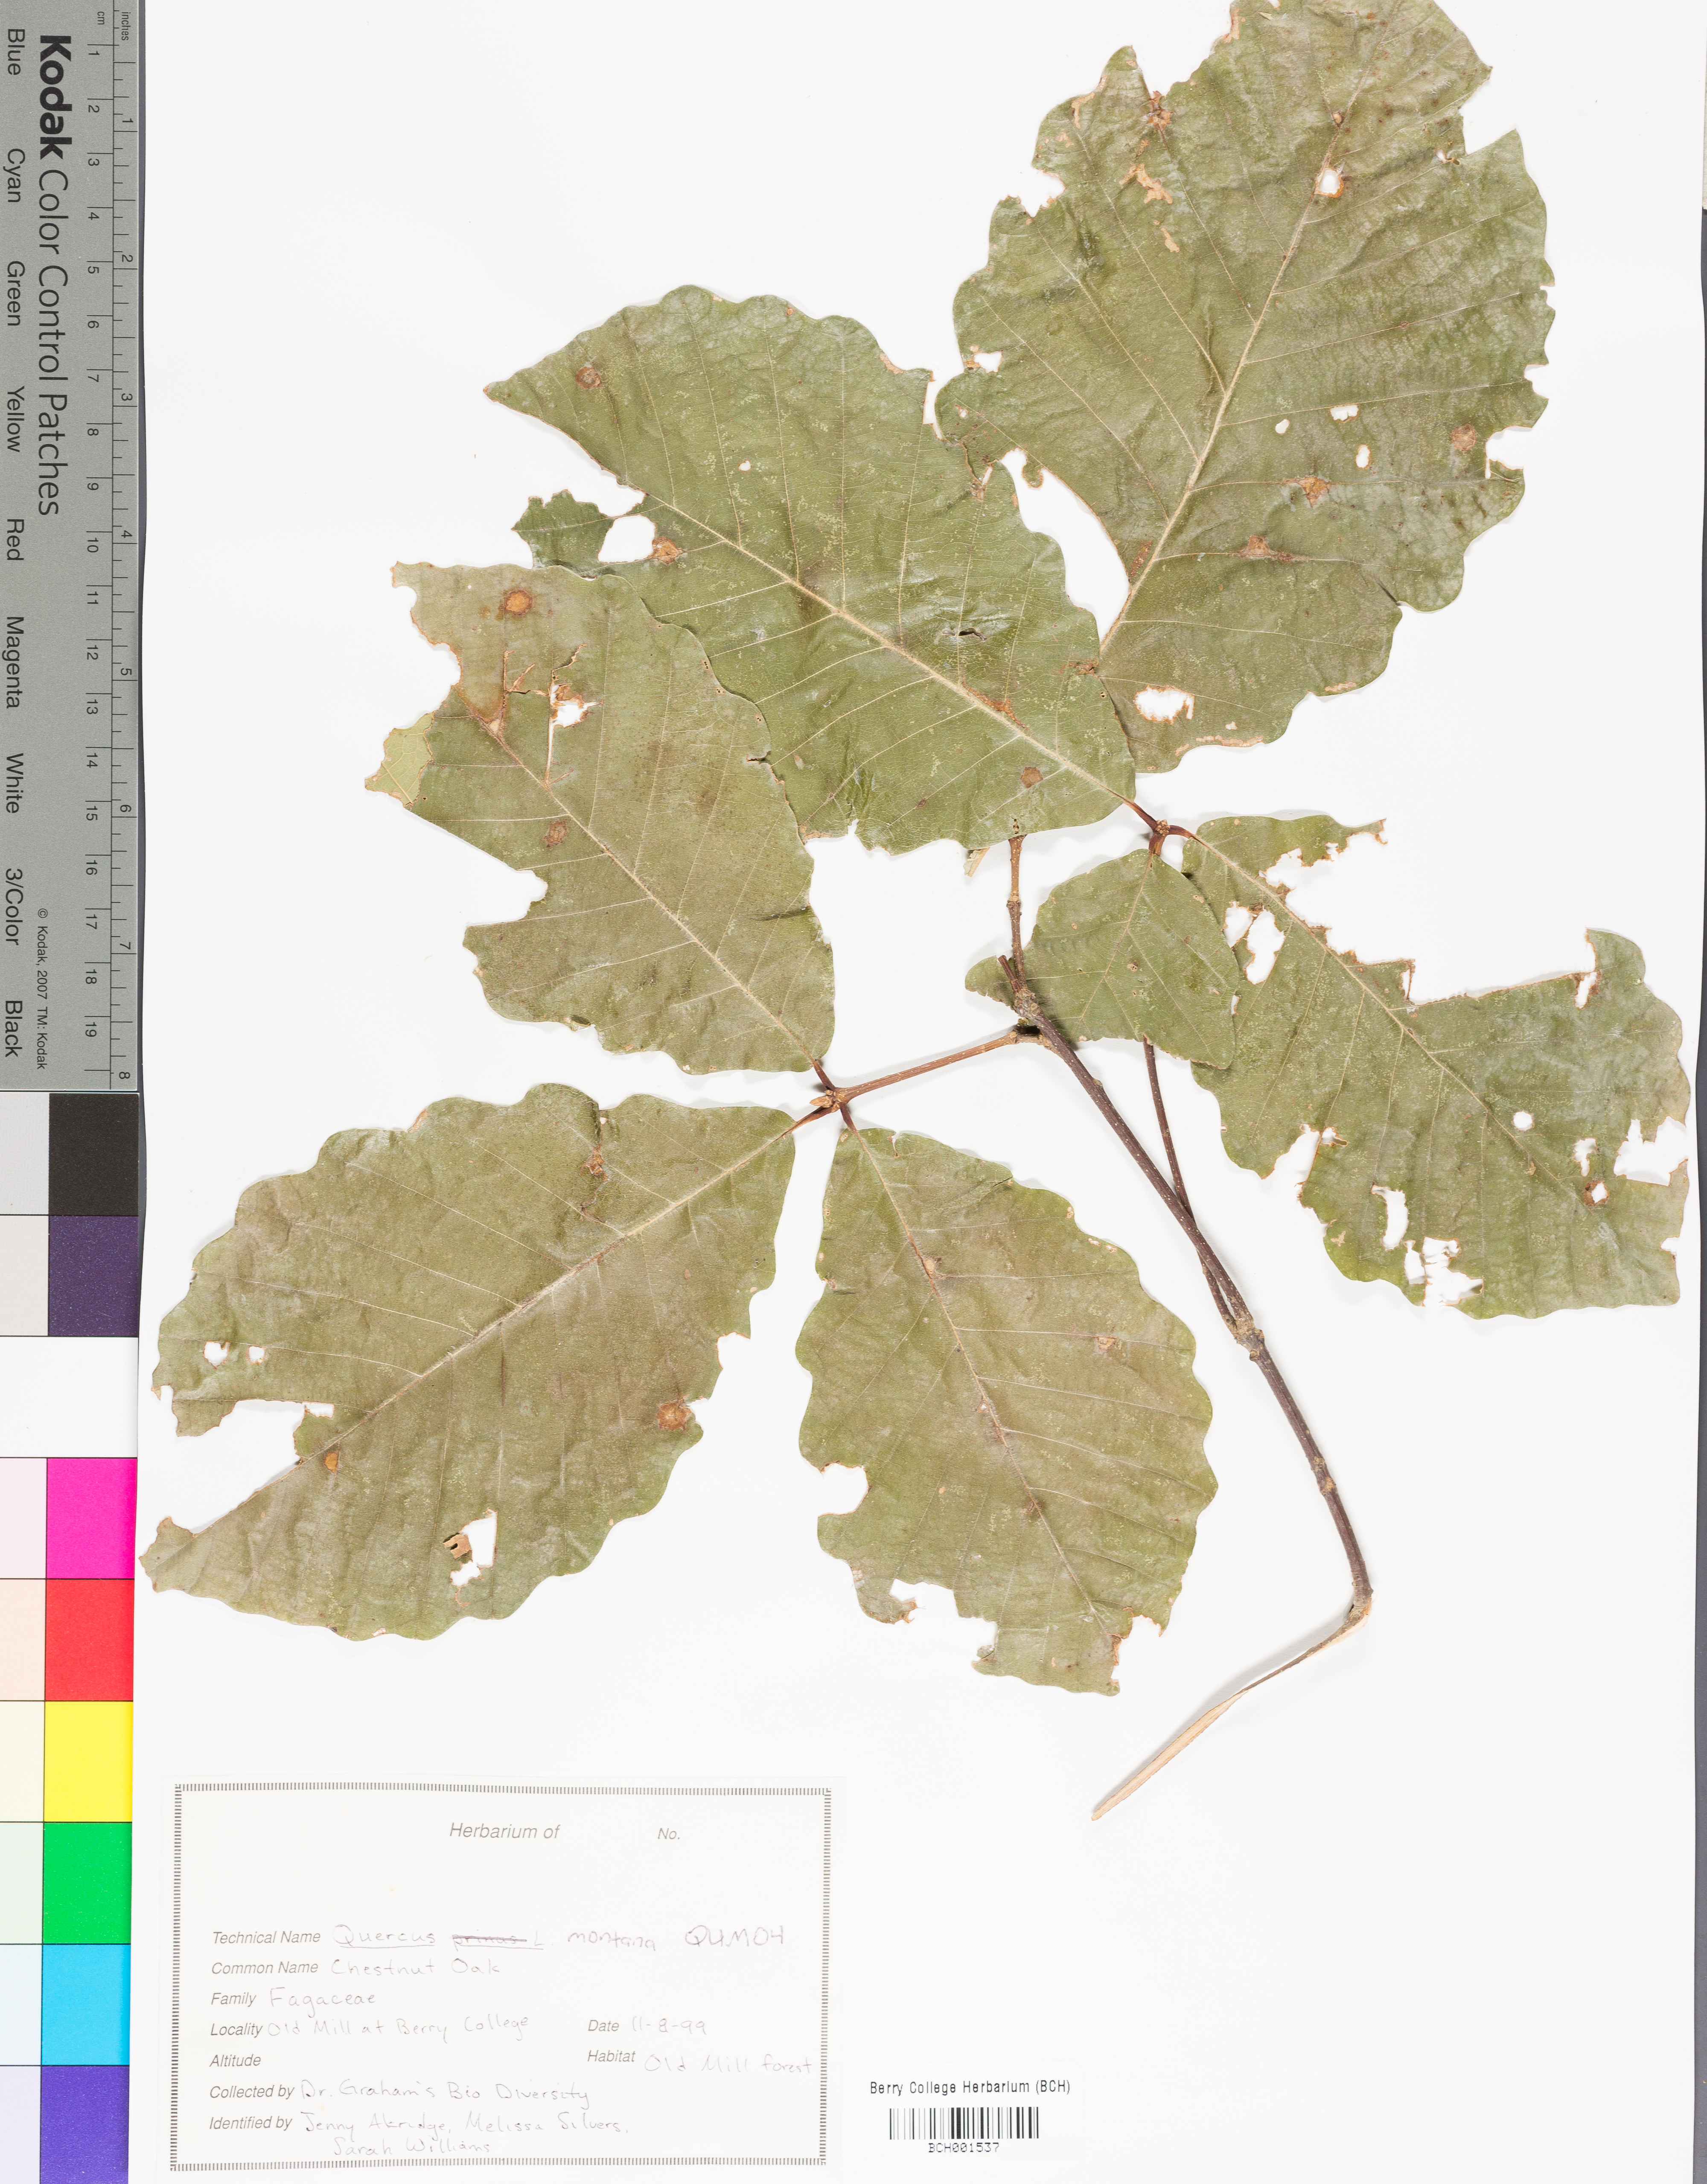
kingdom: Plantae
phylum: Tracheophyta
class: Magnoliopsida
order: Fagales
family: Fagaceae
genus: Quercus
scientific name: Quercus montana
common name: Chestnut oak
